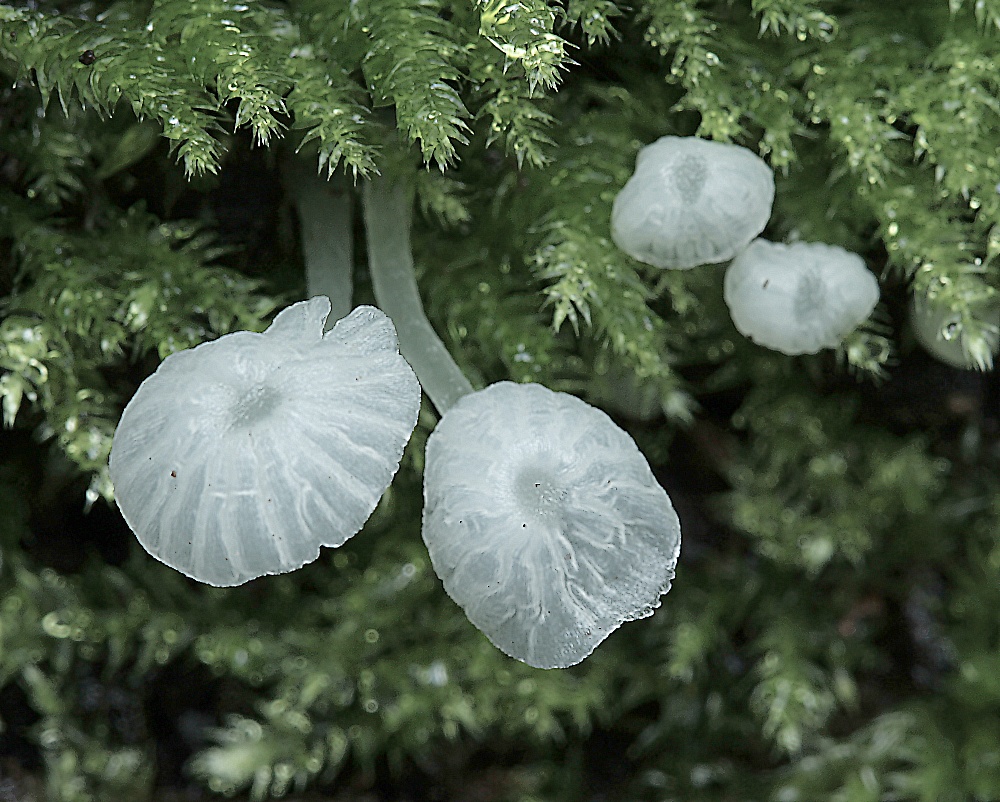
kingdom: Fungi
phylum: Basidiomycota
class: Agaricomycetes
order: Agaricales
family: Tricholomataceae
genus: Delicatula
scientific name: Delicatula integrella
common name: slørhuesvamp
